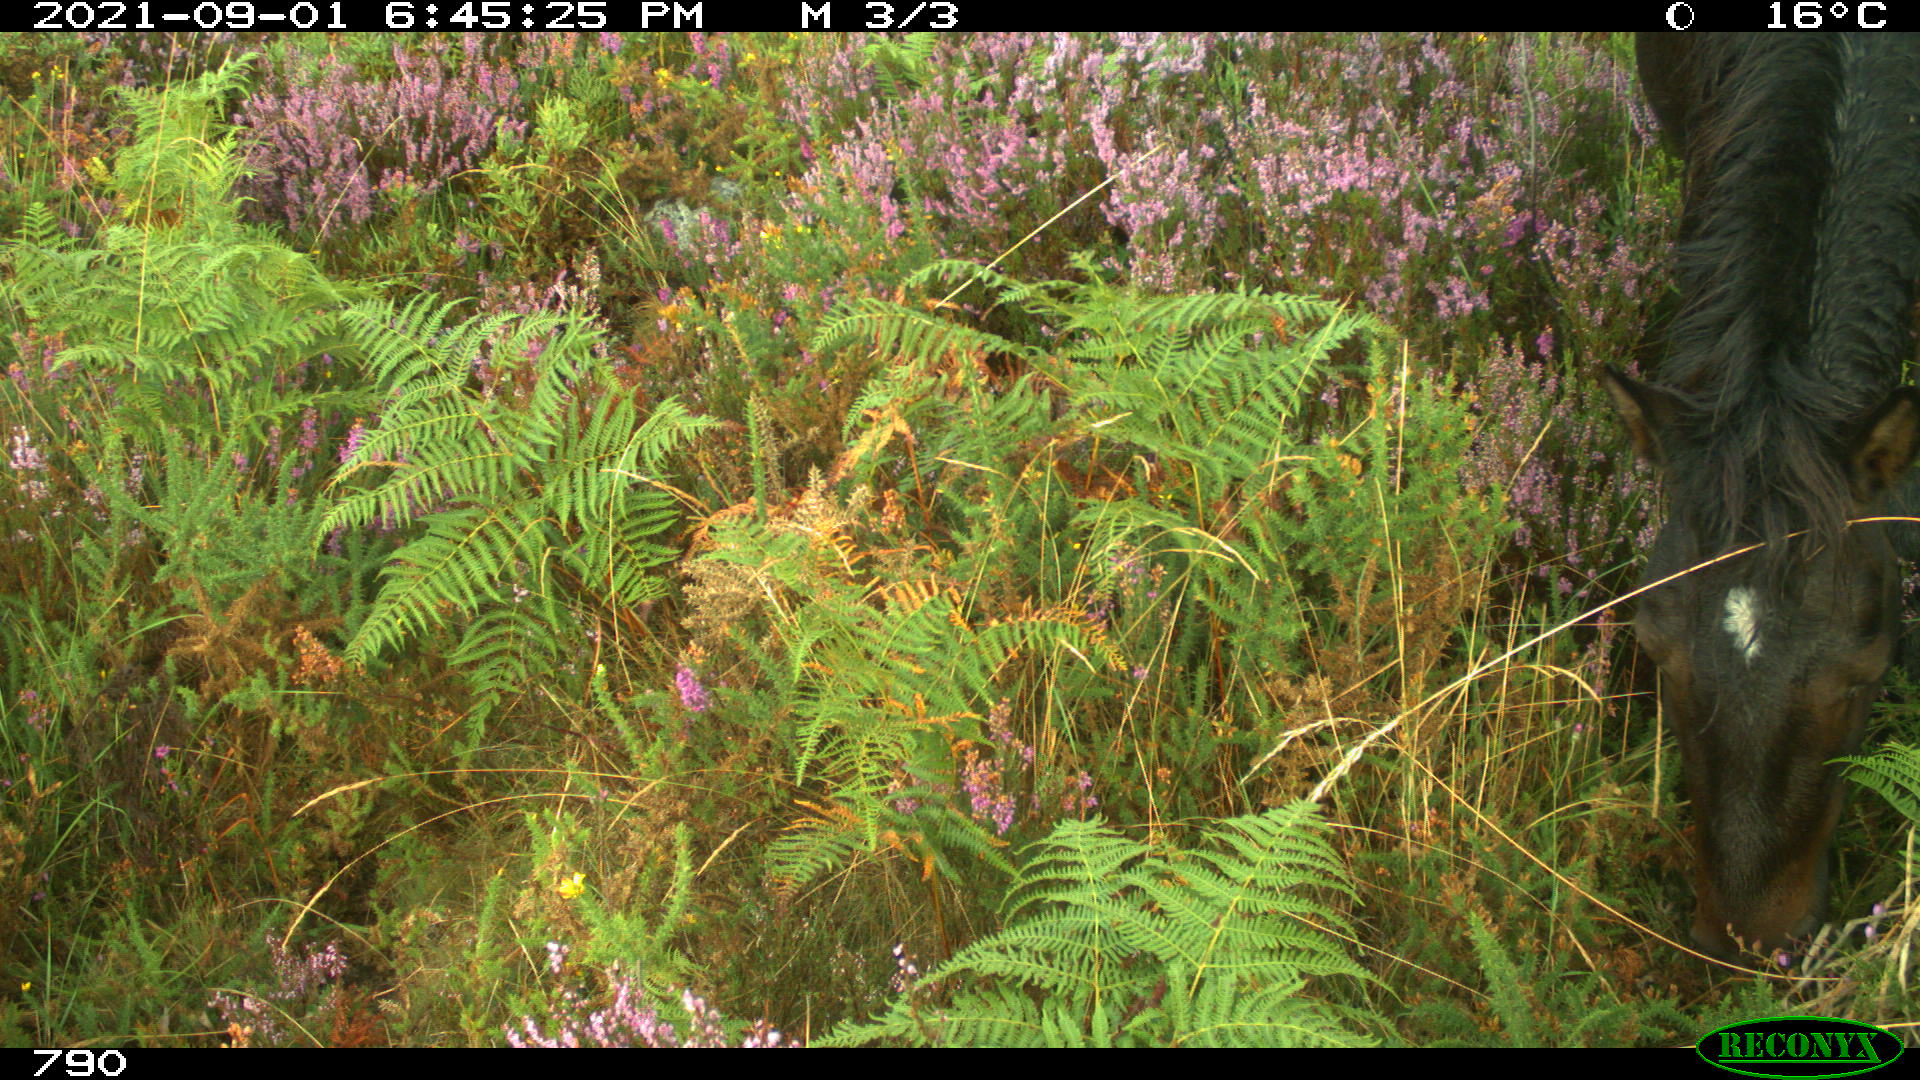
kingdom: Animalia
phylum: Chordata
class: Mammalia
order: Perissodactyla
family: Equidae
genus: Equus
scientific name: Equus caballus
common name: Horse
